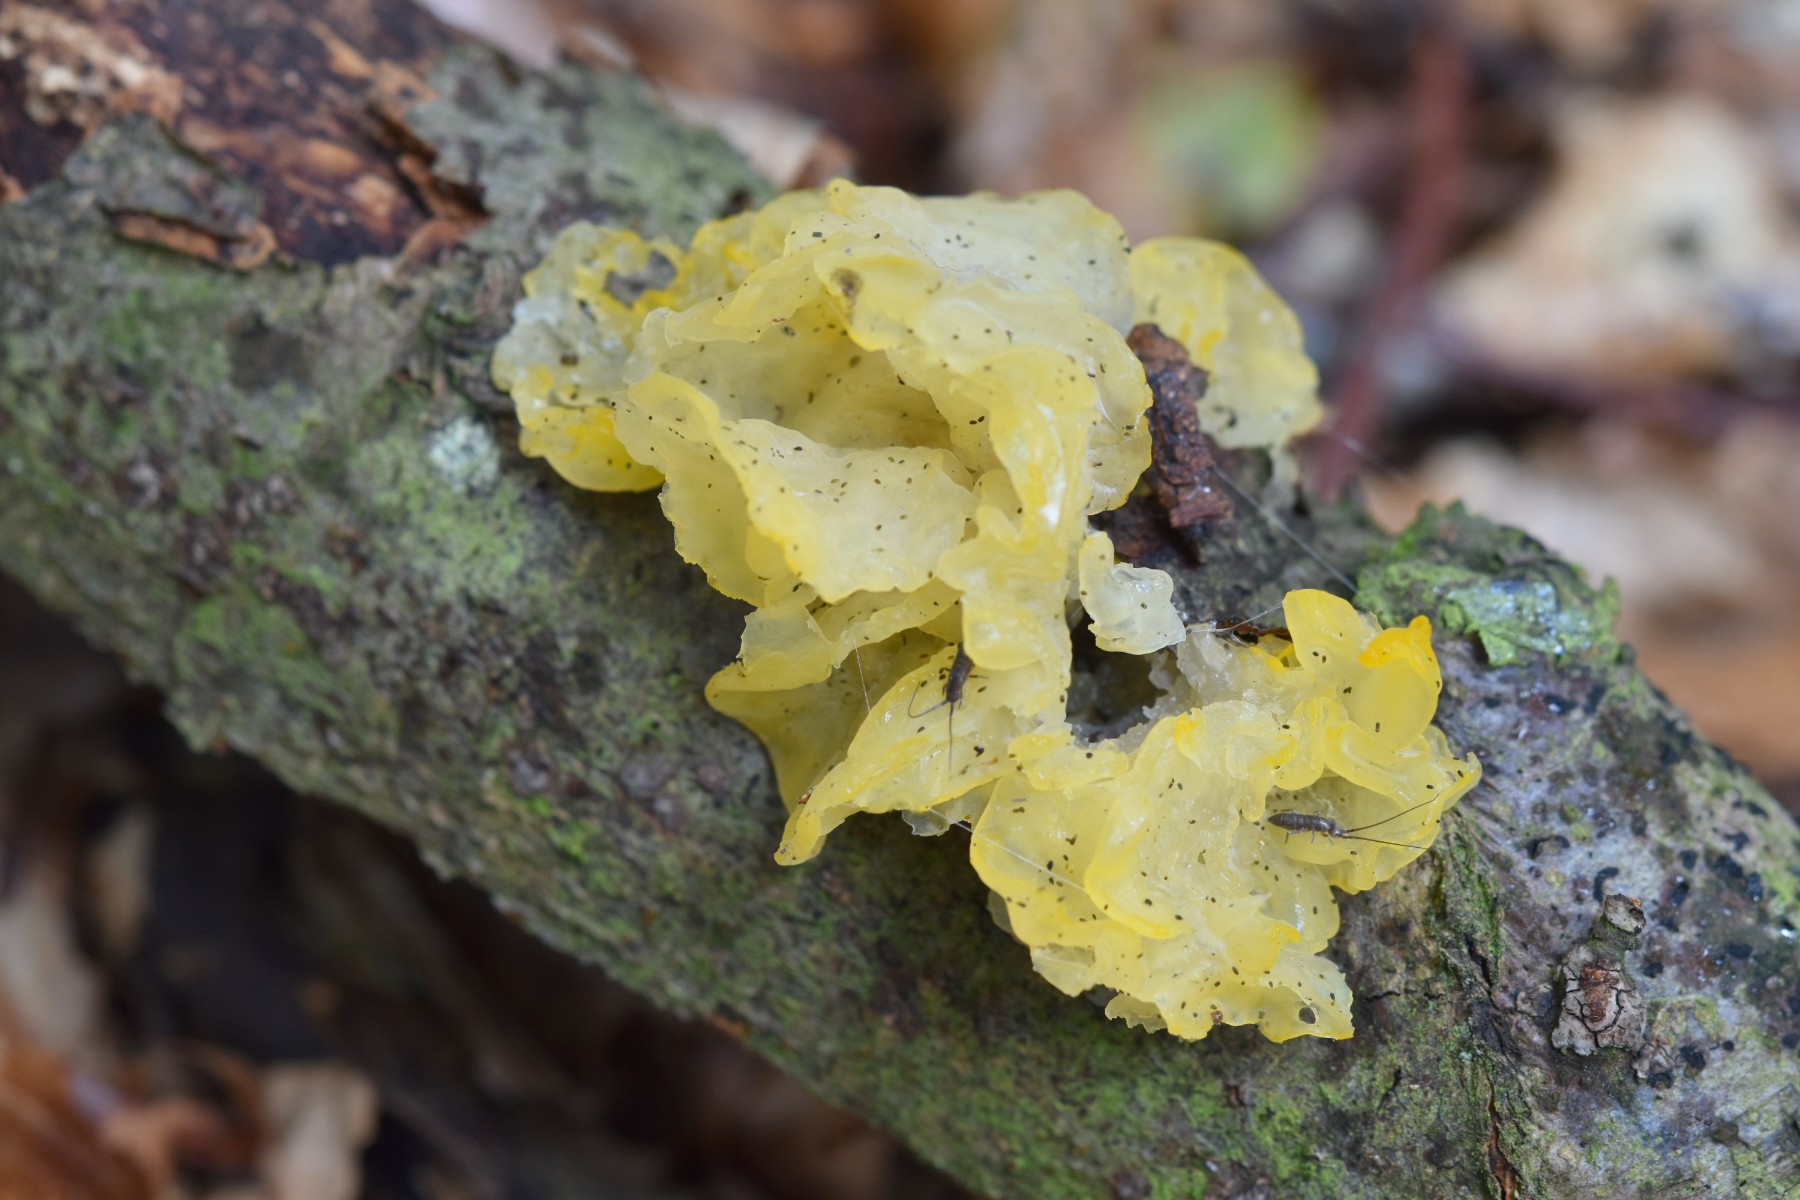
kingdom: Fungi
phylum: Basidiomycota
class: Tremellomycetes
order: Tremellales
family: Tremellaceae
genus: Tremella
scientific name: Tremella mesenterica
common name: gul bævresvamp
